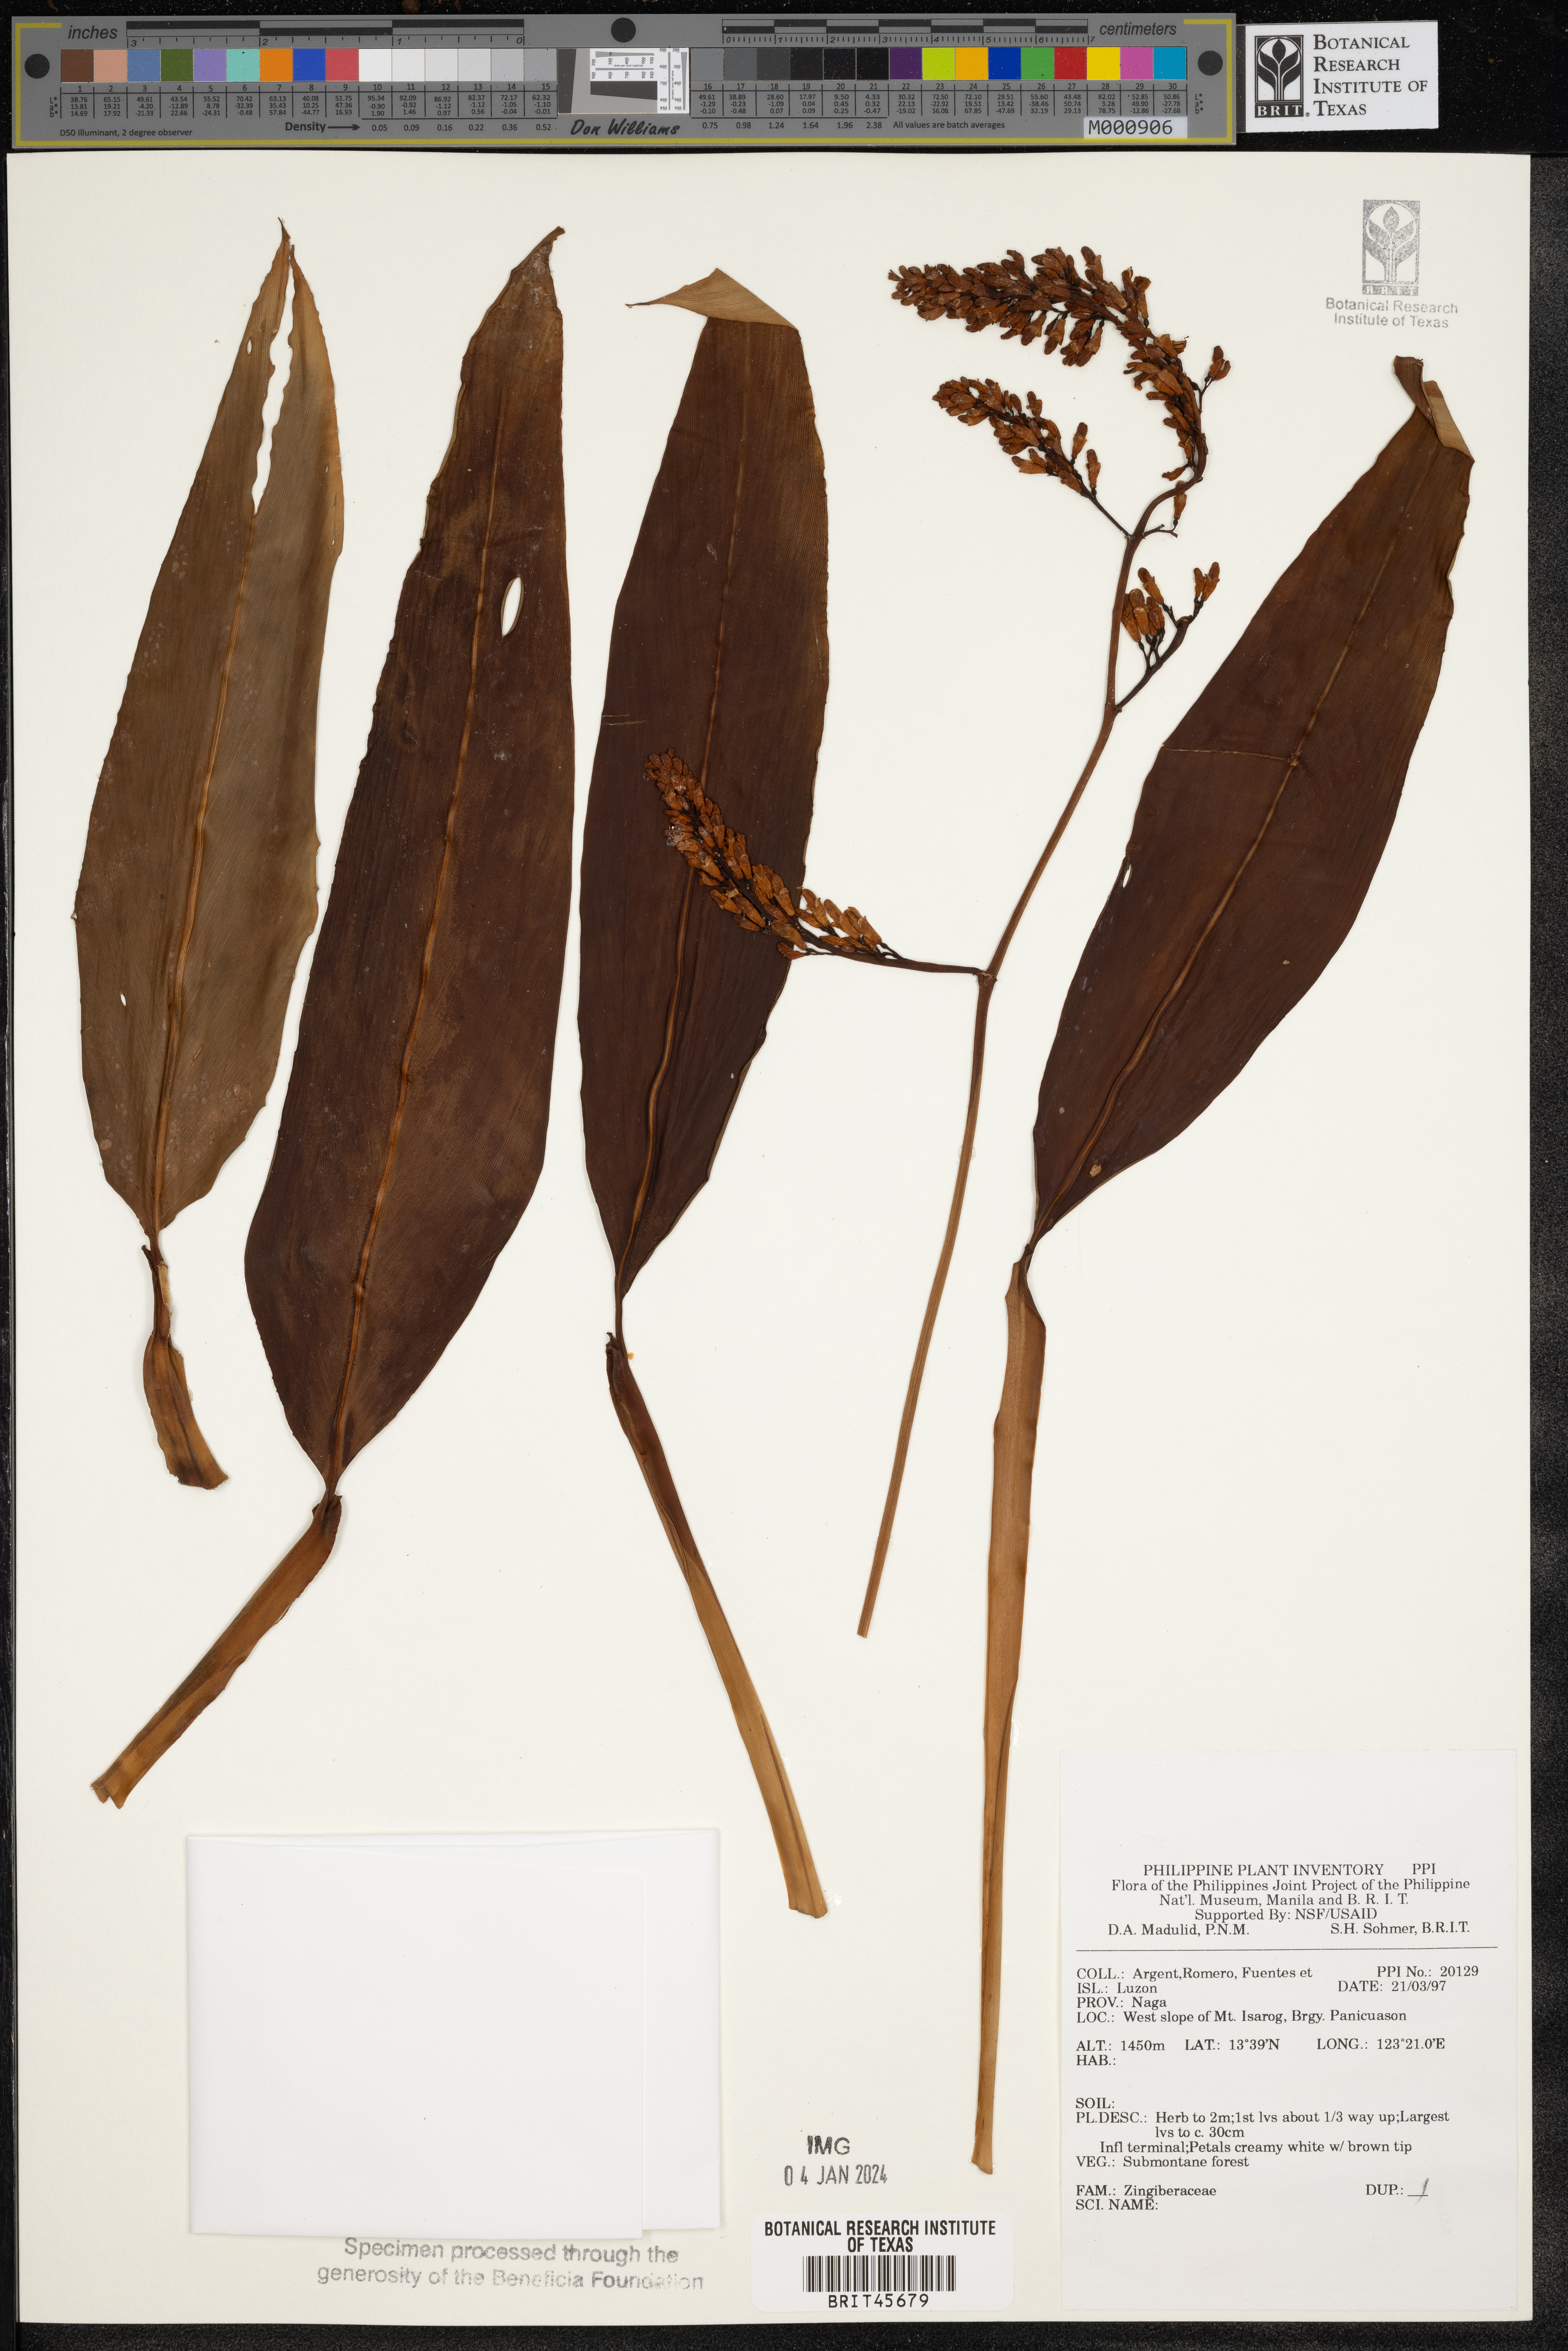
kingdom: Plantae
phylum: Tracheophyta
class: Liliopsida
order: Zingiberales
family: Zingiberaceae
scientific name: Zingiberaceae
